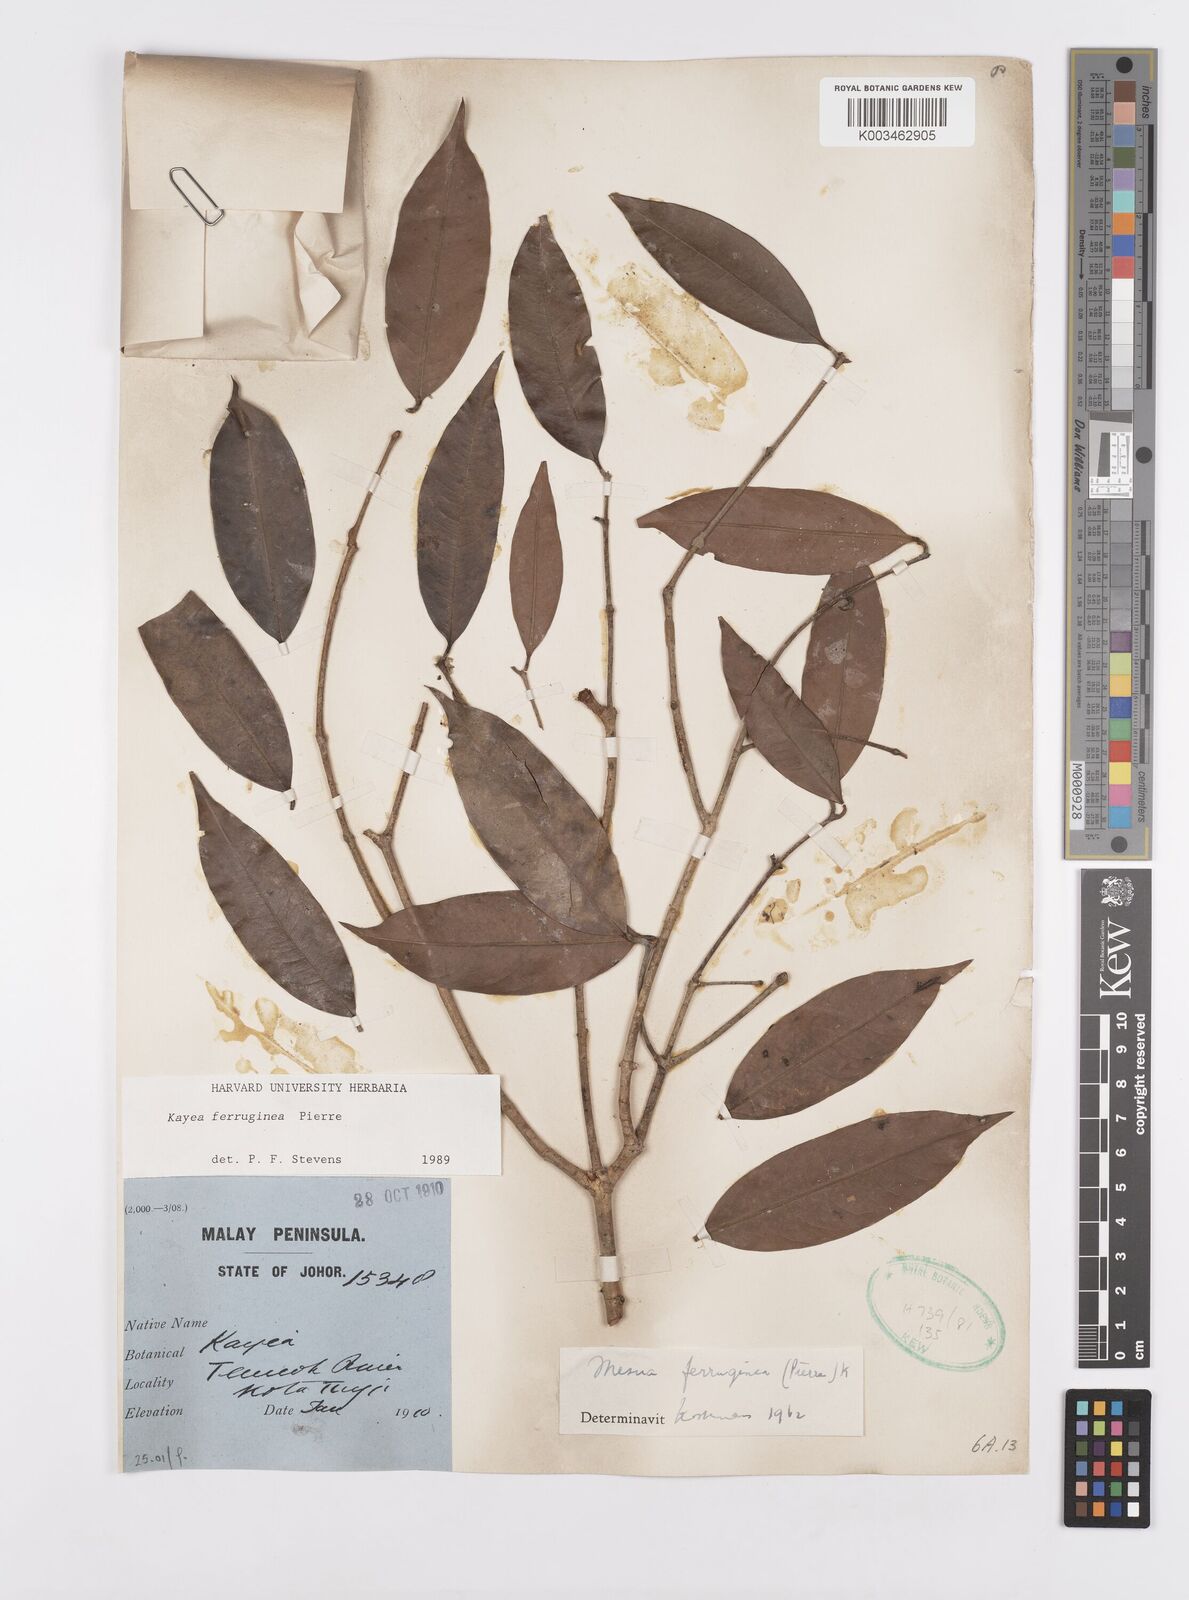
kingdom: Plantae
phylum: Tracheophyta
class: Magnoliopsida
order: Malpighiales
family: Calophyllaceae
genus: Kayea
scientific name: Kayea manii
